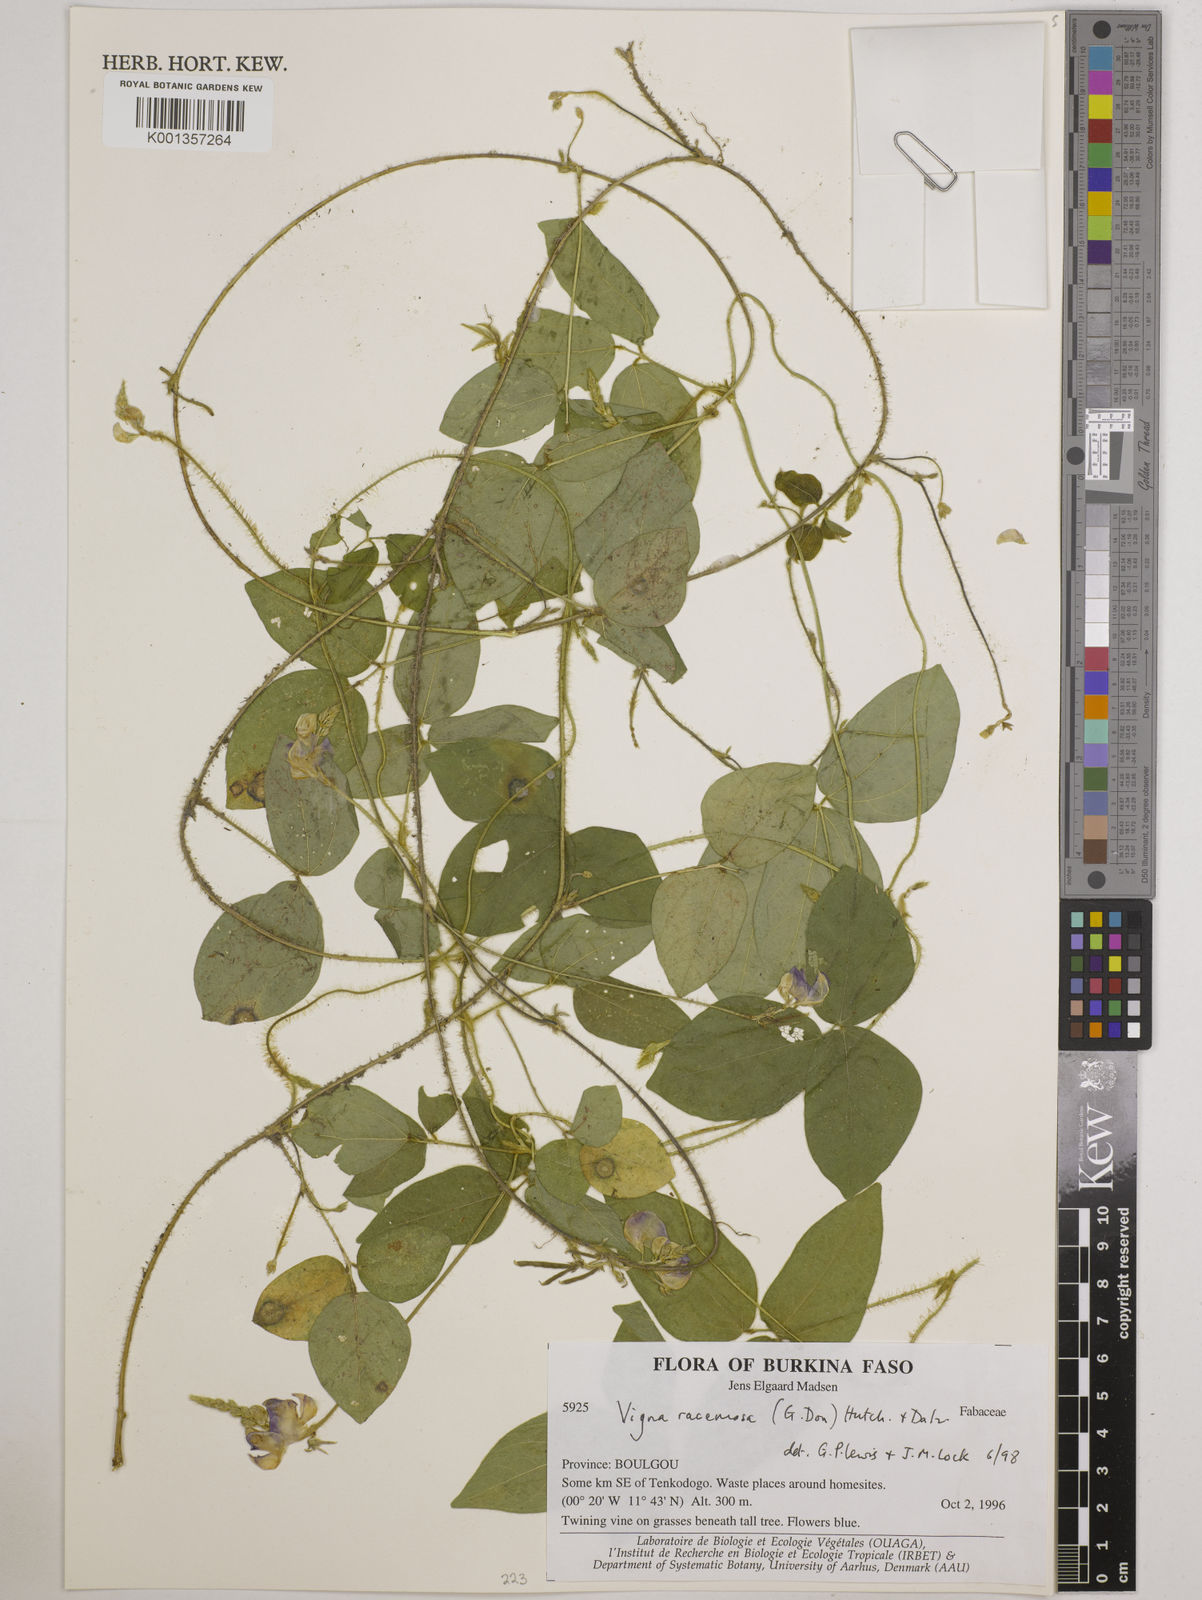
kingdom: Plantae
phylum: Tracheophyta
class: Magnoliopsida
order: Fabales
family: Fabaceae
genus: Vigna
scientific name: Vigna racemosa
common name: Beans not eaten
